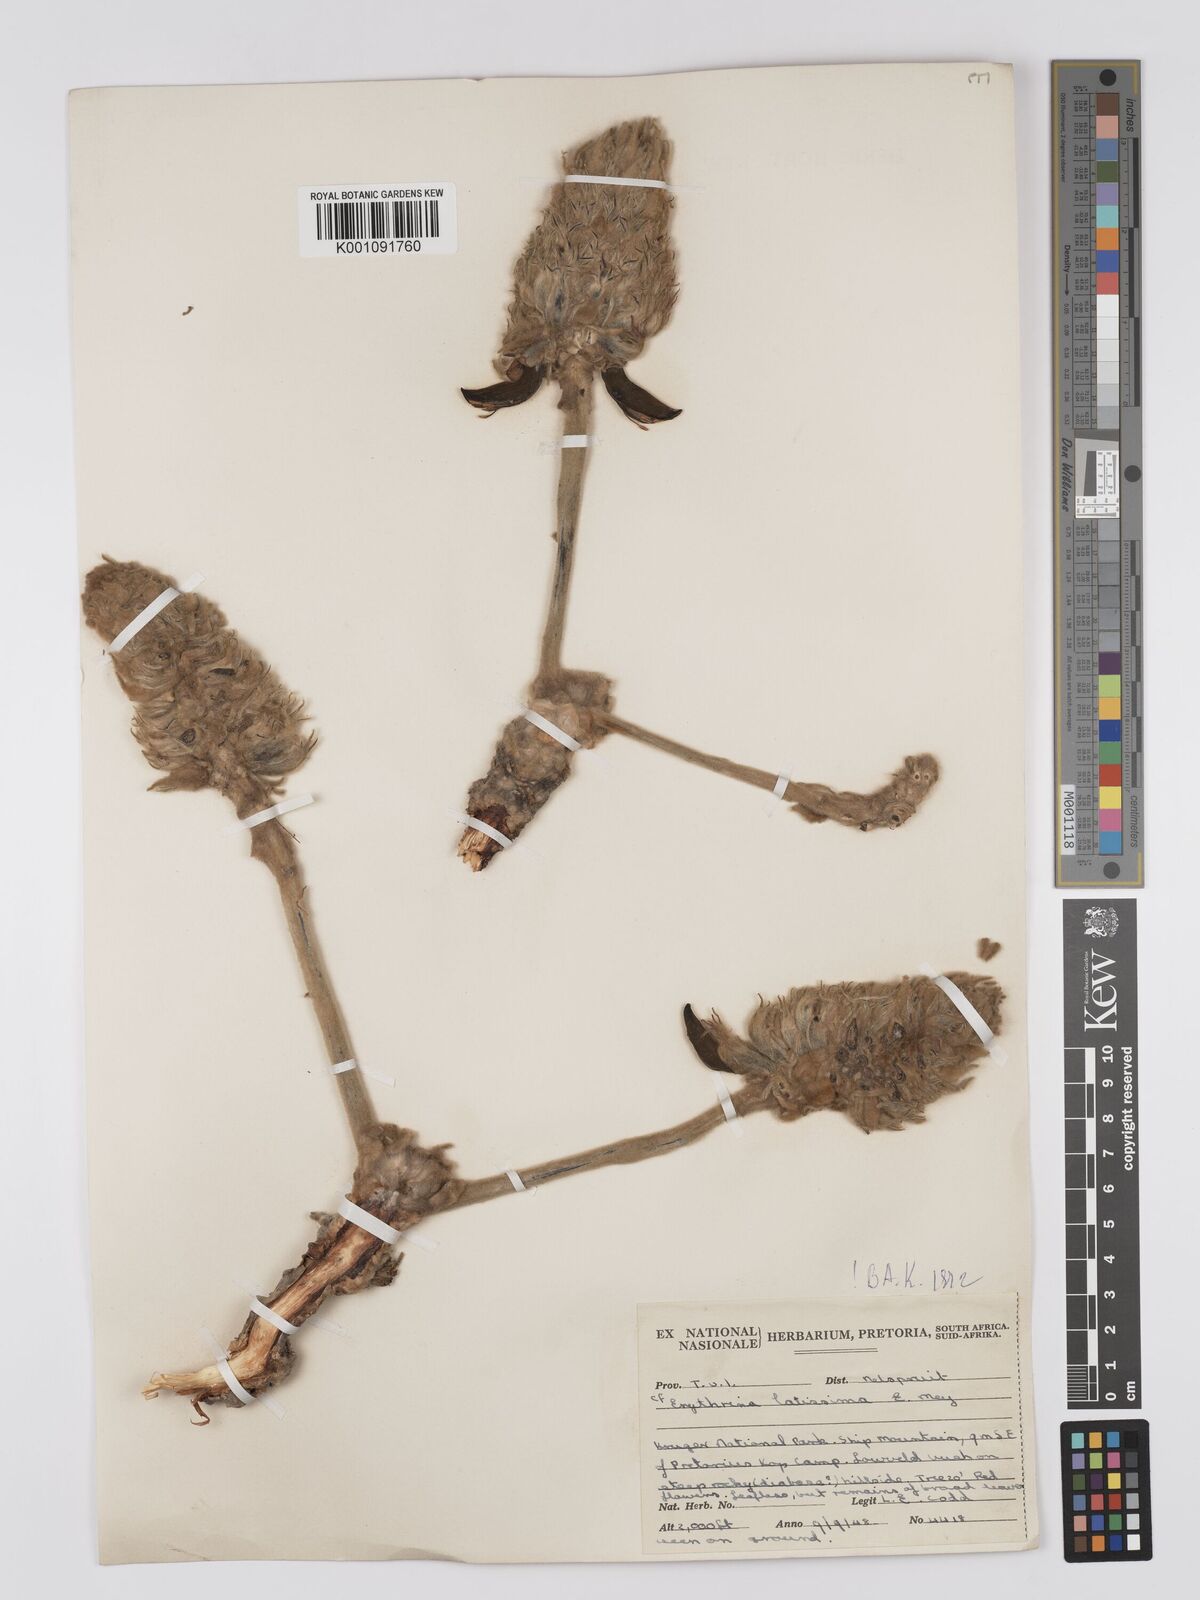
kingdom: Plantae
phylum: Tracheophyta
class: Magnoliopsida
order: Fabales
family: Fabaceae
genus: Erythrina
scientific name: Erythrina latissima
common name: Broad-leaved coral tree
